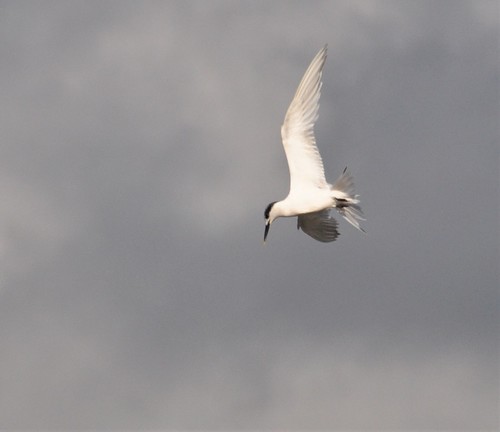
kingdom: Animalia
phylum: Chordata
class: Aves
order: Charadriiformes
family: Laridae
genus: Thalasseus
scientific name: Thalasseus sandvicensis
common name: Sandwich tern
